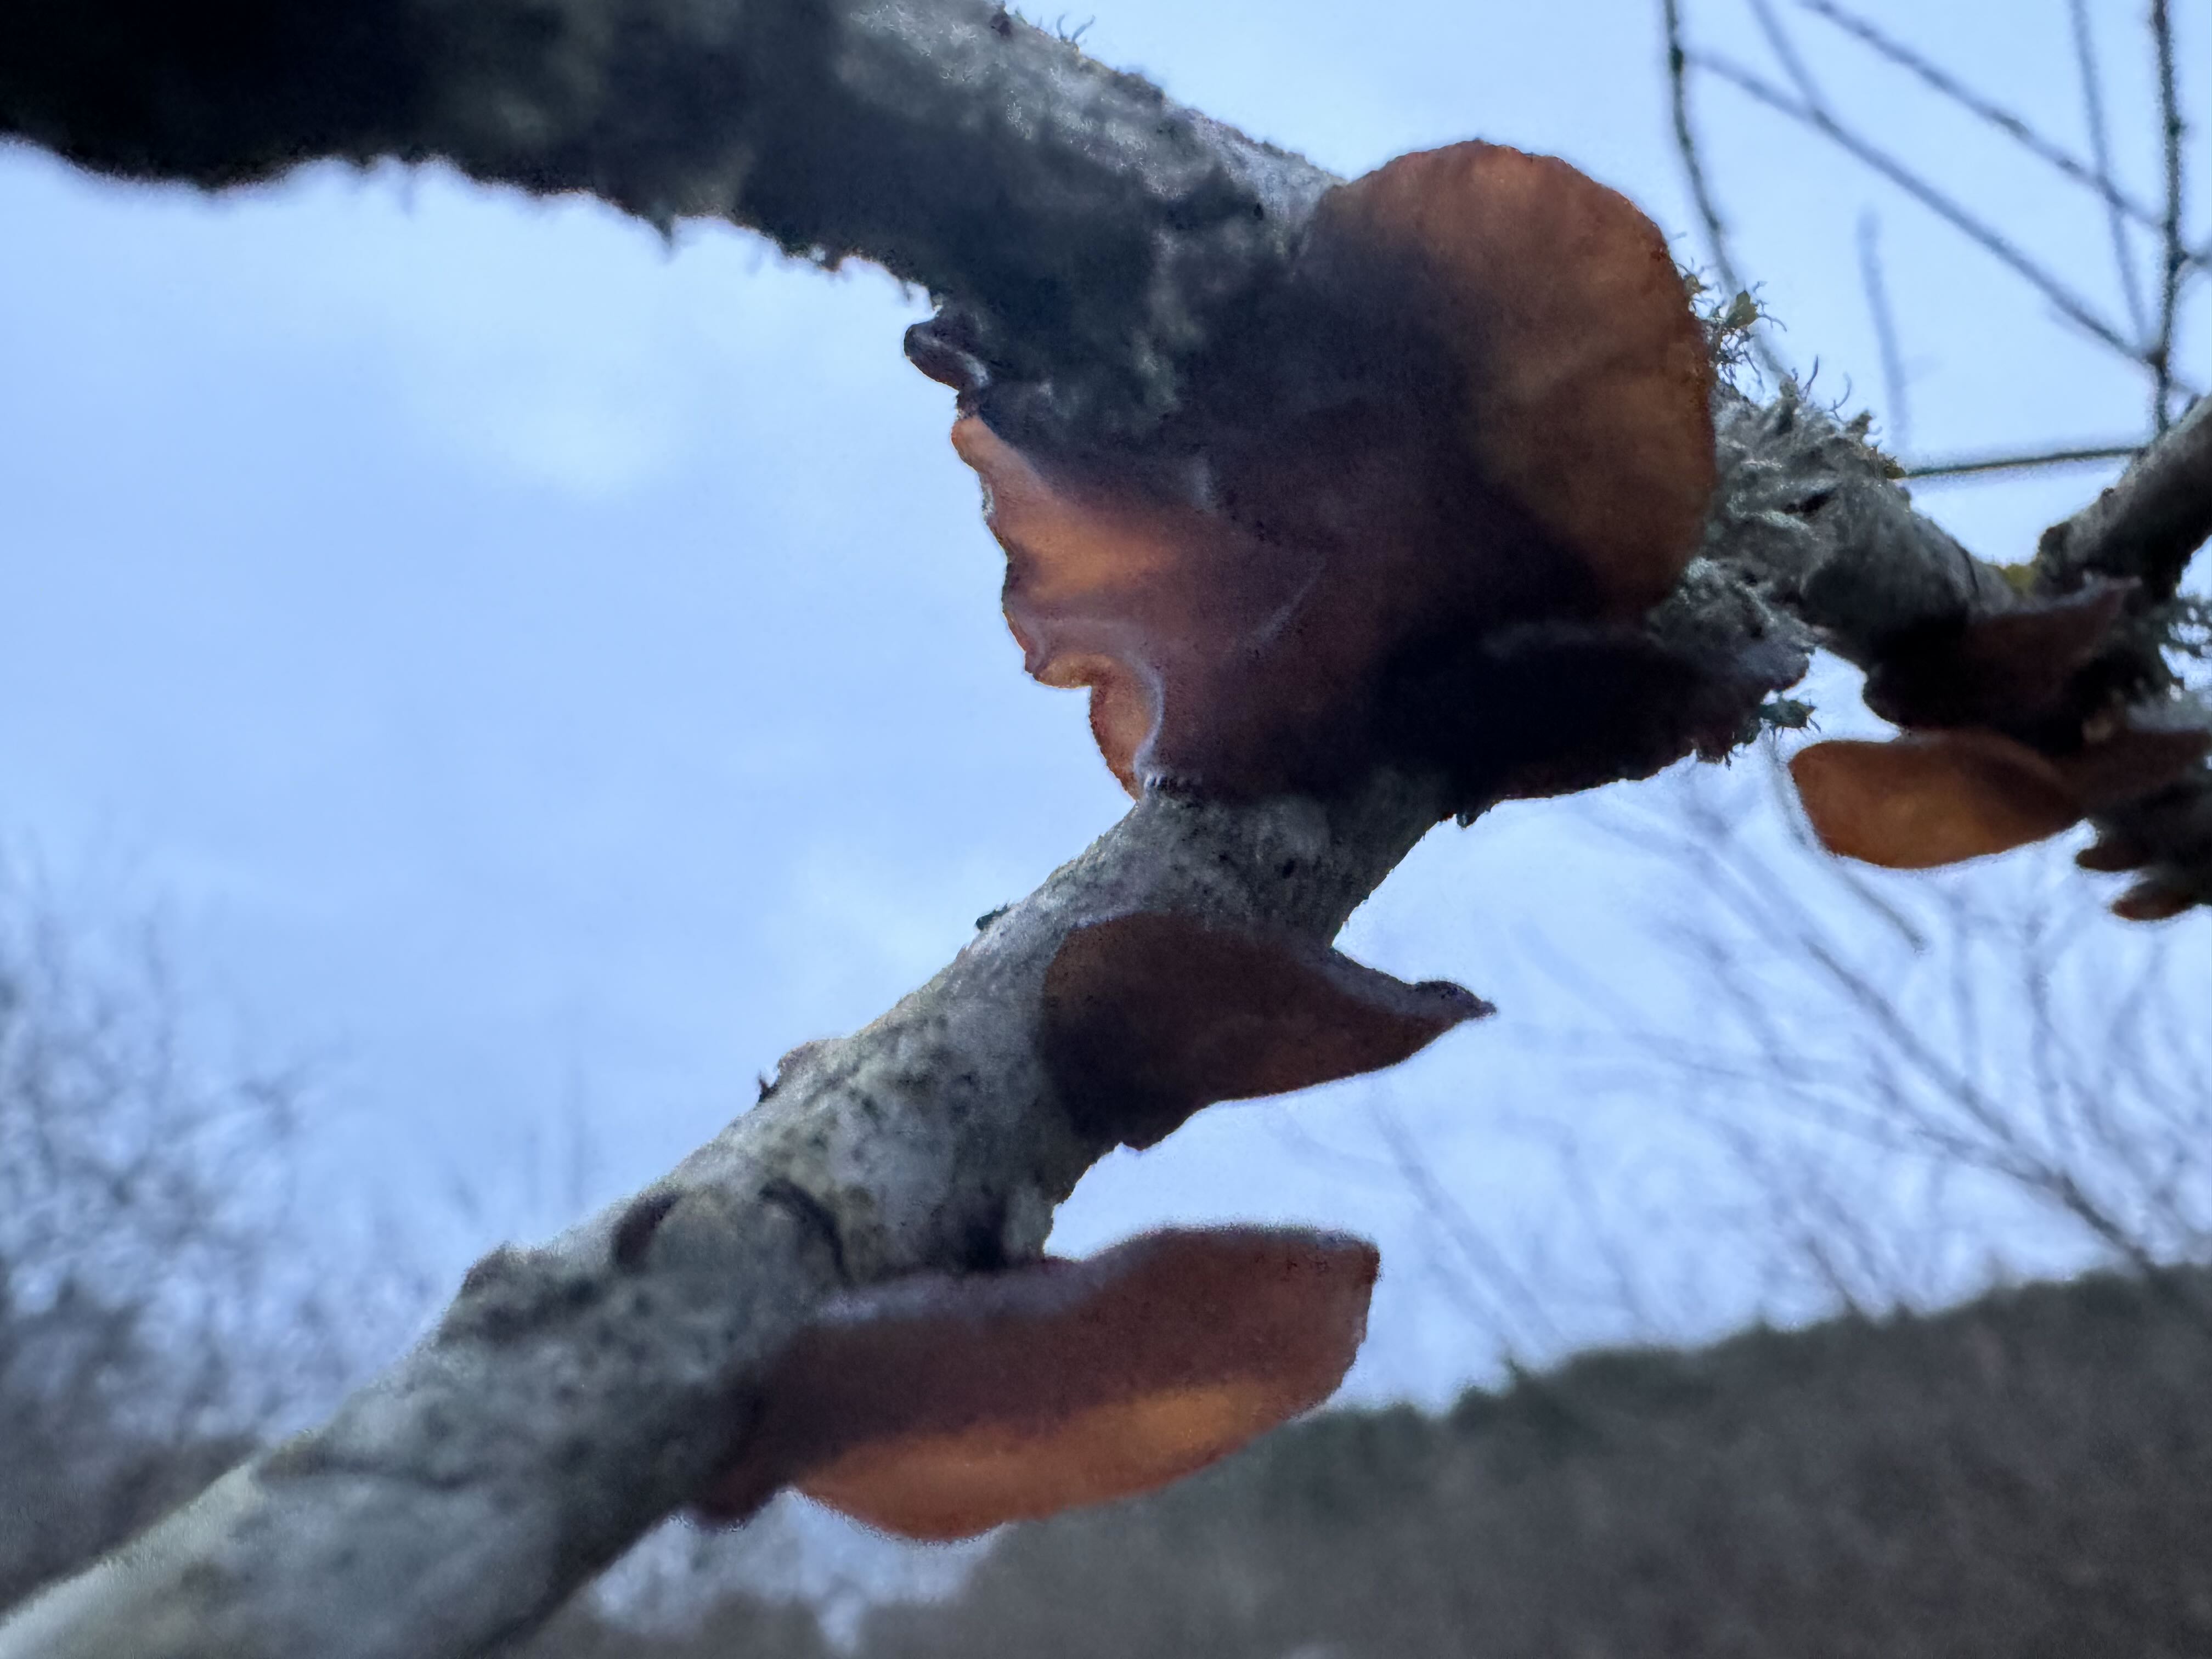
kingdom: Fungi
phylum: Basidiomycota
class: Agaricomycetes
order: Auriculariales
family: Auriculariaceae
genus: Exidia
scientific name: Exidia recisa
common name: pile-bævretop
